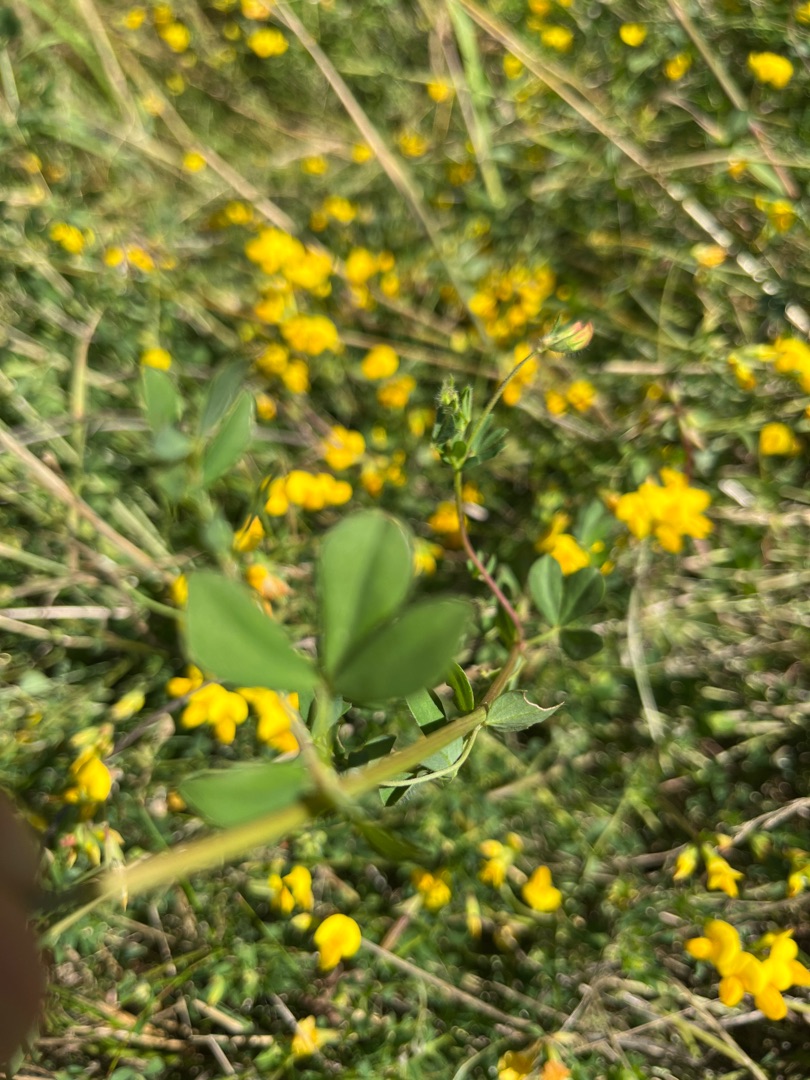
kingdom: Plantae
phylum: Tracheophyta
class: Magnoliopsida
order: Fabales
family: Fabaceae
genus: Lotus
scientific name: Lotus corniculatus
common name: Almindelig kællingetand
